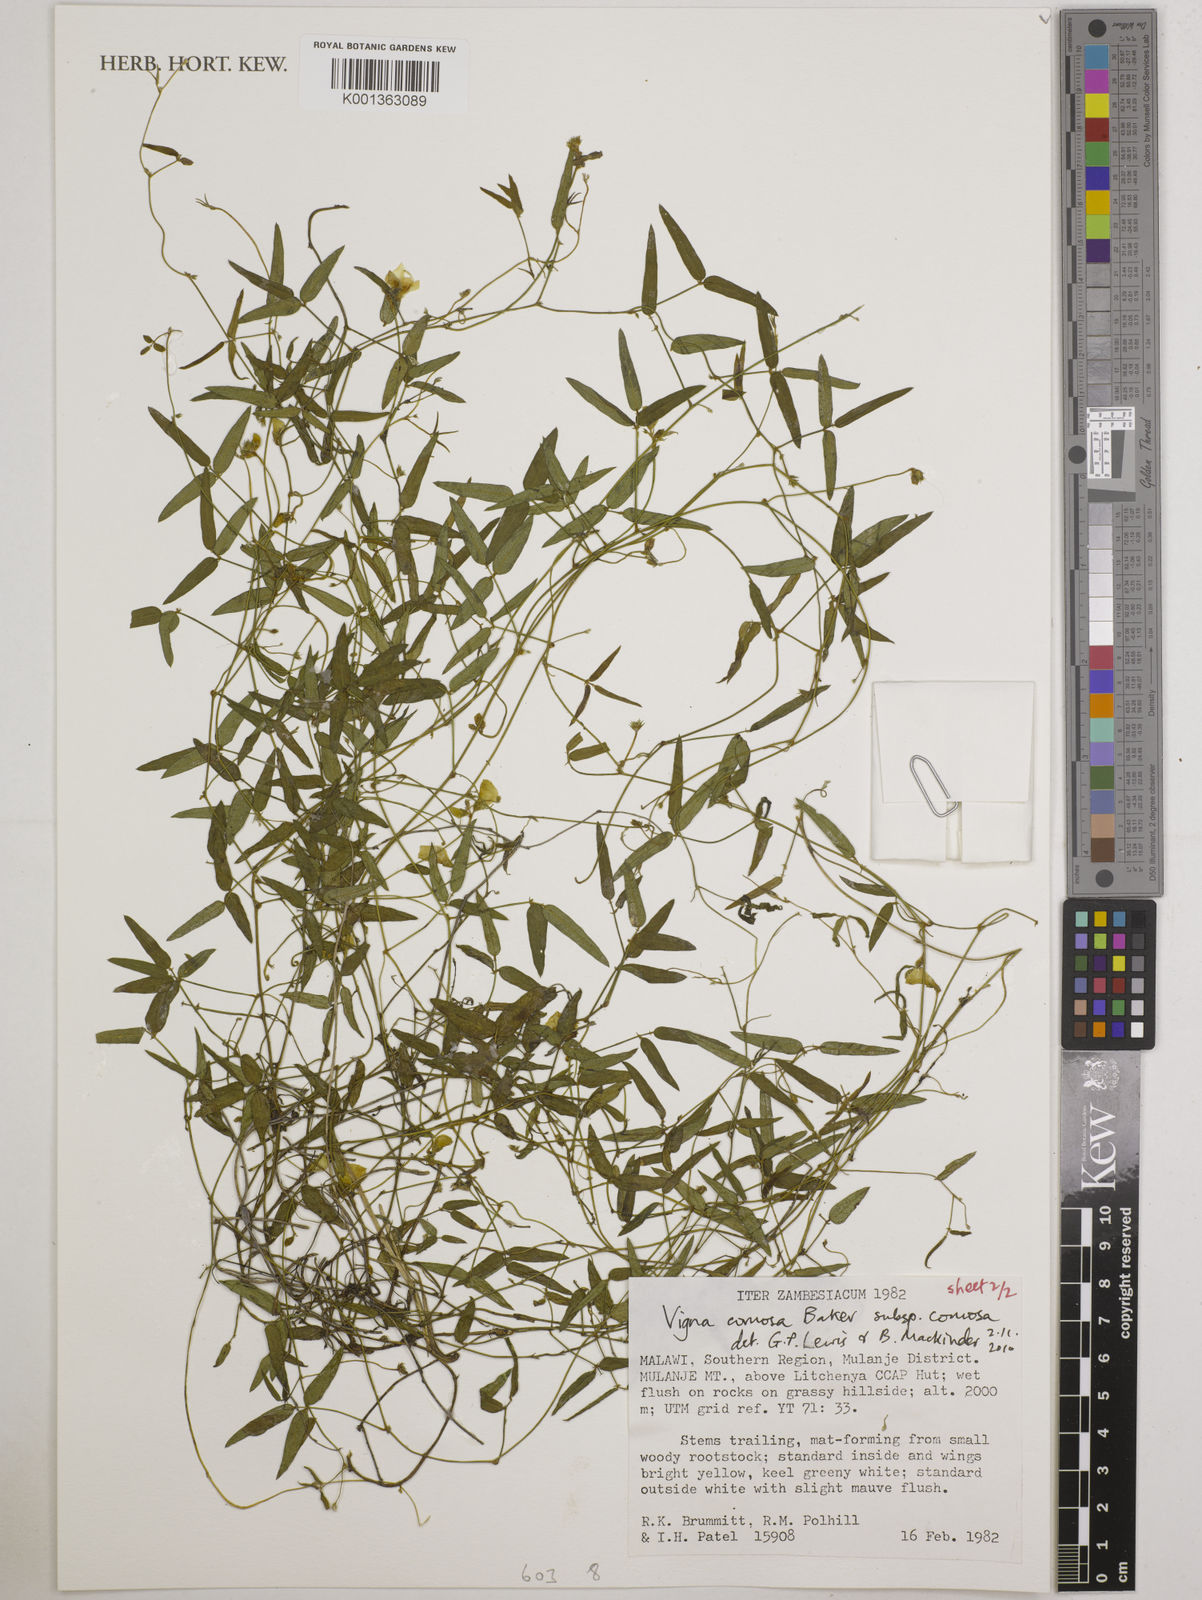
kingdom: Plantae
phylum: Tracheophyta
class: Magnoliopsida
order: Fabales
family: Fabaceae
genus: Vigna
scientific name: Vigna comosa
